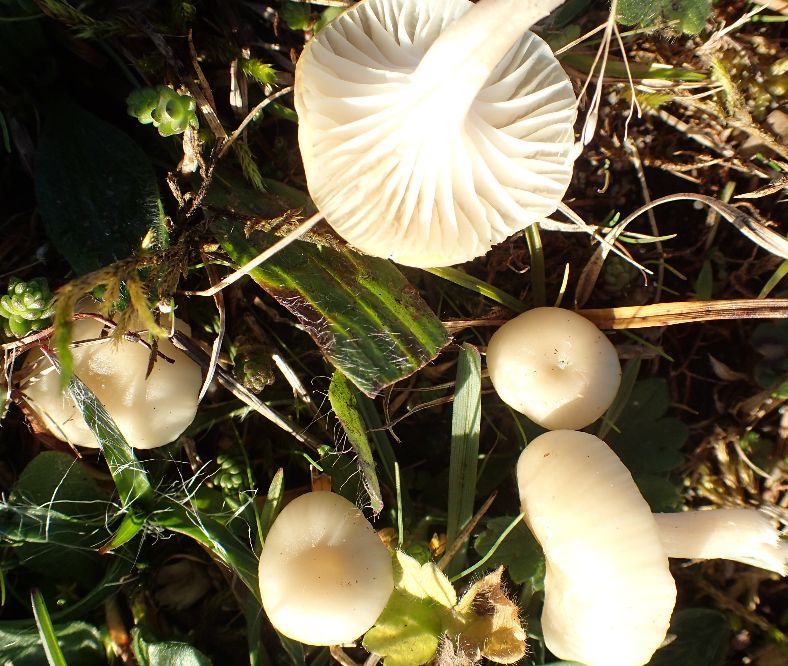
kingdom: Fungi
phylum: Basidiomycota
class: Agaricomycetes
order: Agaricales
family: Hygrophoraceae
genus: Cuphophyllus
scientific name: Cuphophyllus russocoriaceus
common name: ruslæder-vokshat
